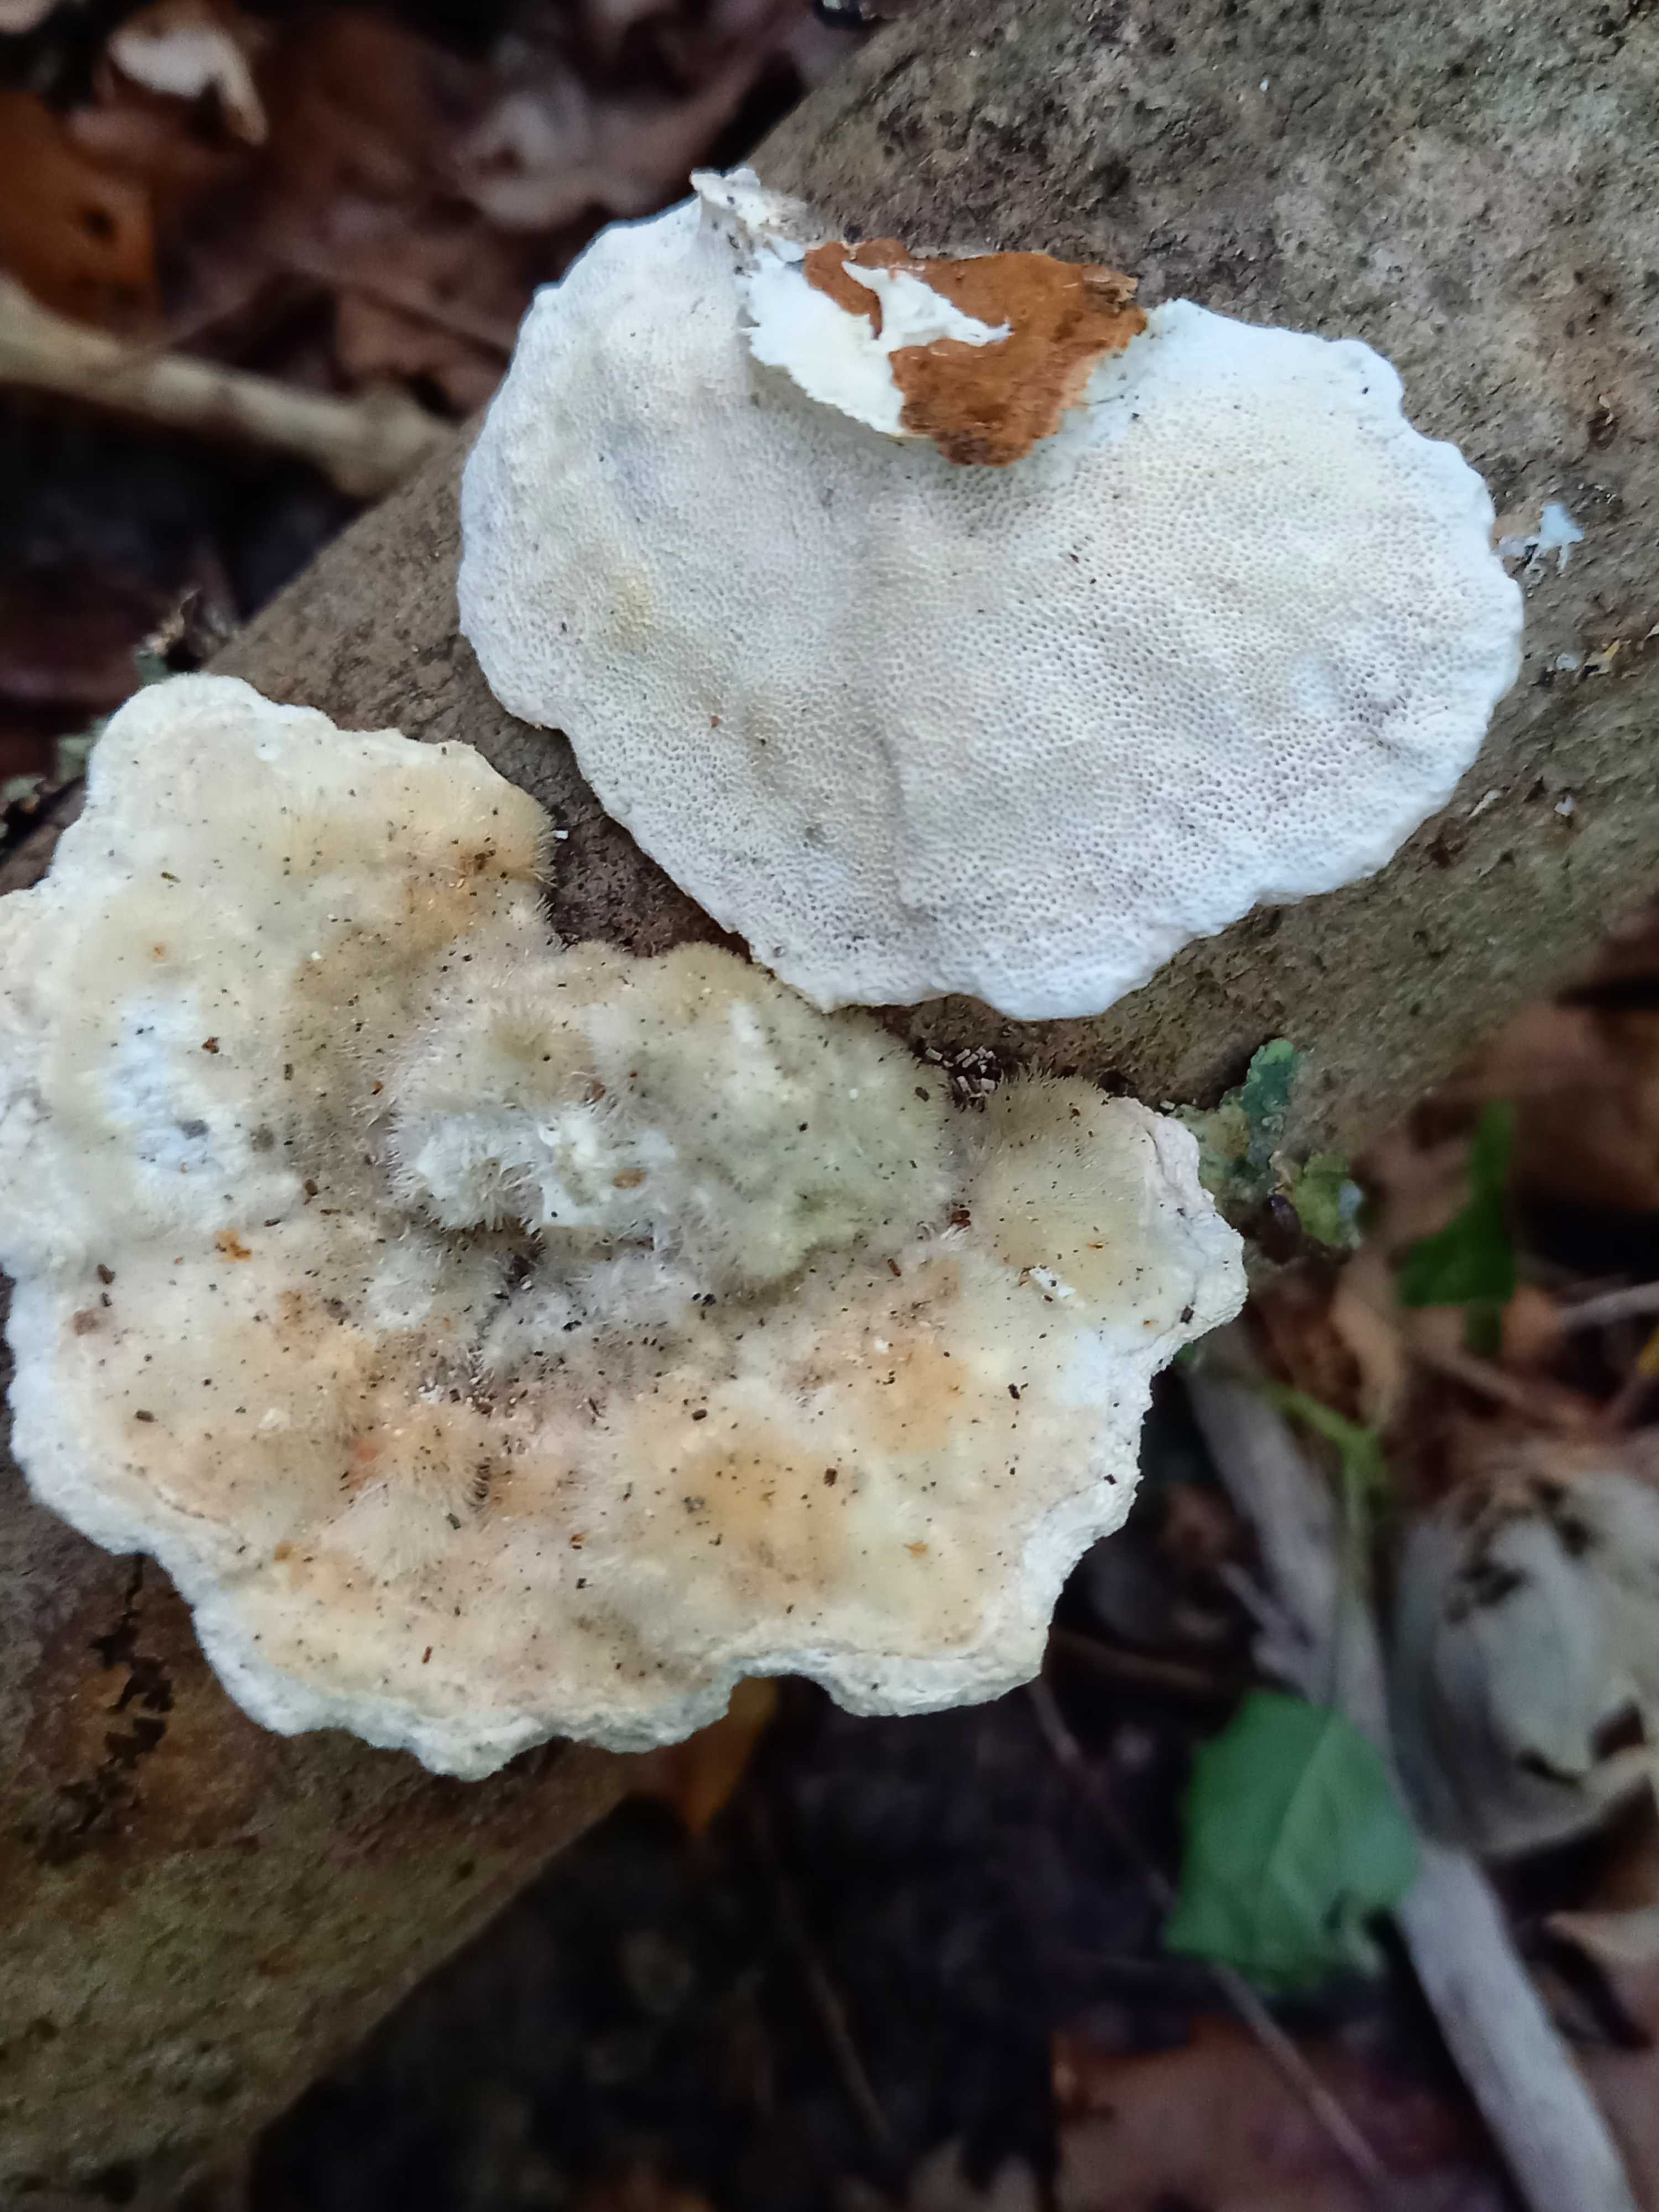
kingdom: Fungi
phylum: Basidiomycota
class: Agaricomycetes
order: Polyporales
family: Polyporaceae
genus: Trametes
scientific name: Trametes hirsuta
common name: håret læderporesvamp
